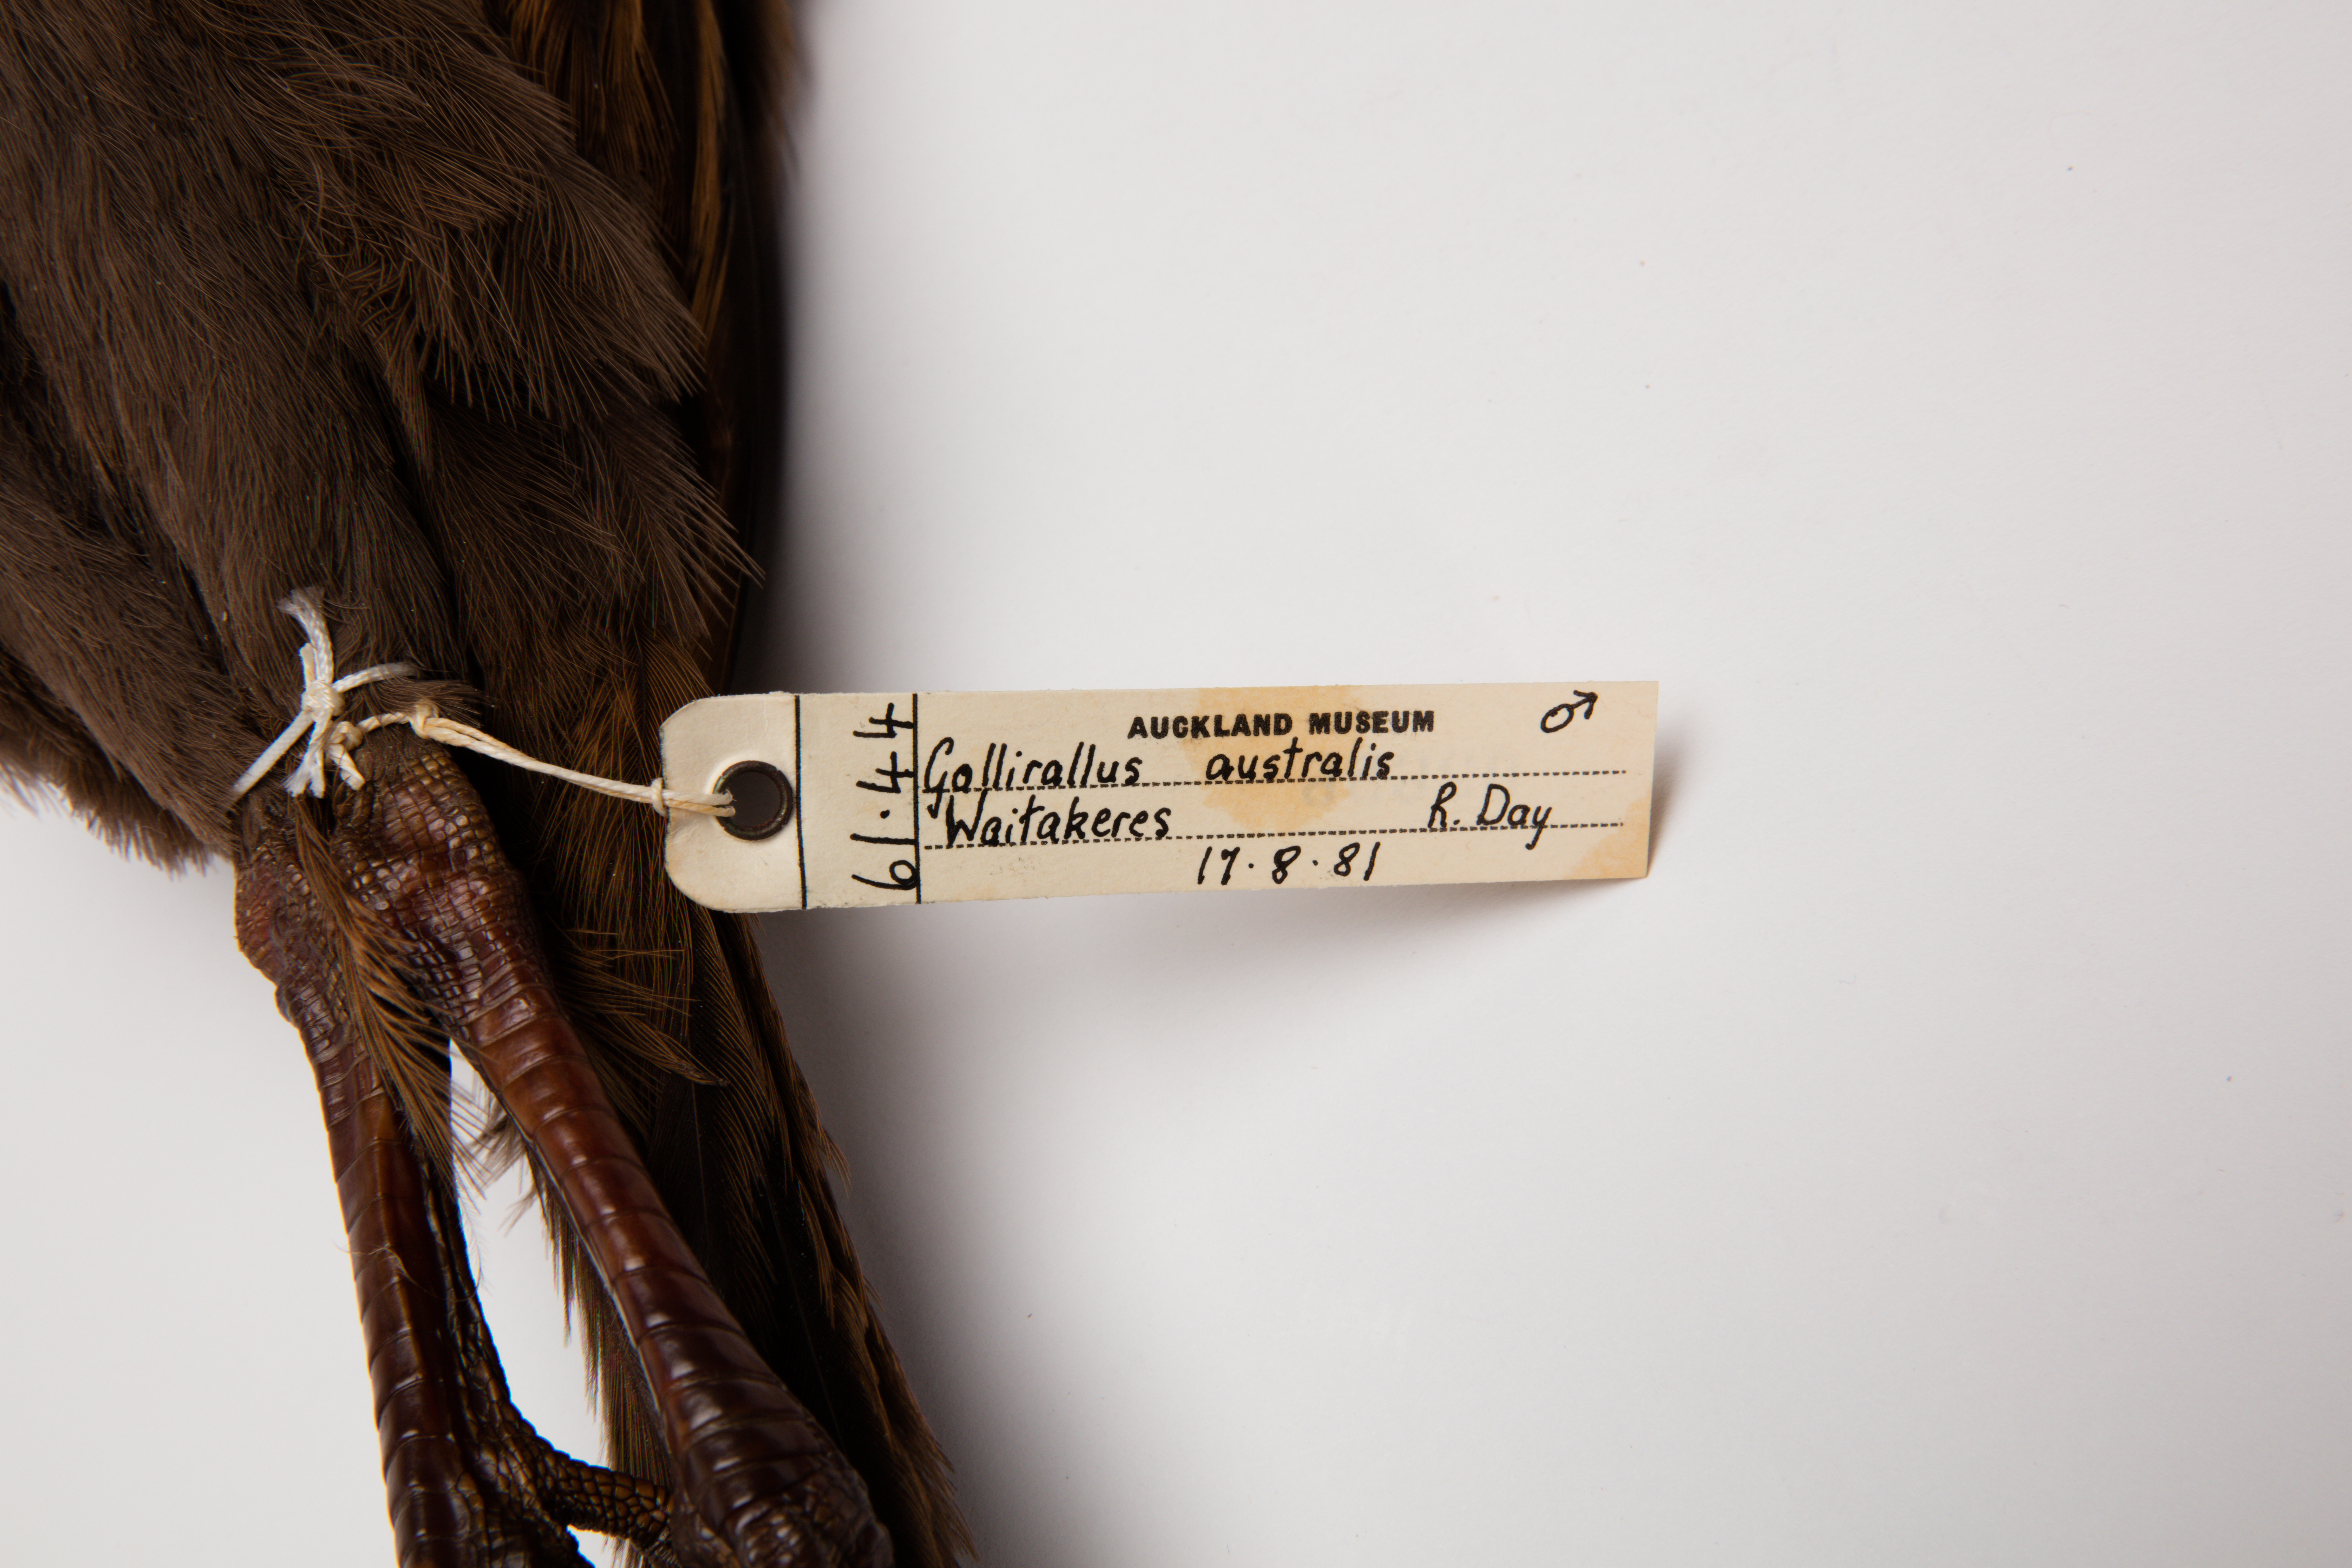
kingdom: Animalia
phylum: Chordata
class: Aves
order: Gruiformes
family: Rallidae
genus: Gallirallus
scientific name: Gallirallus australis
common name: Weka
